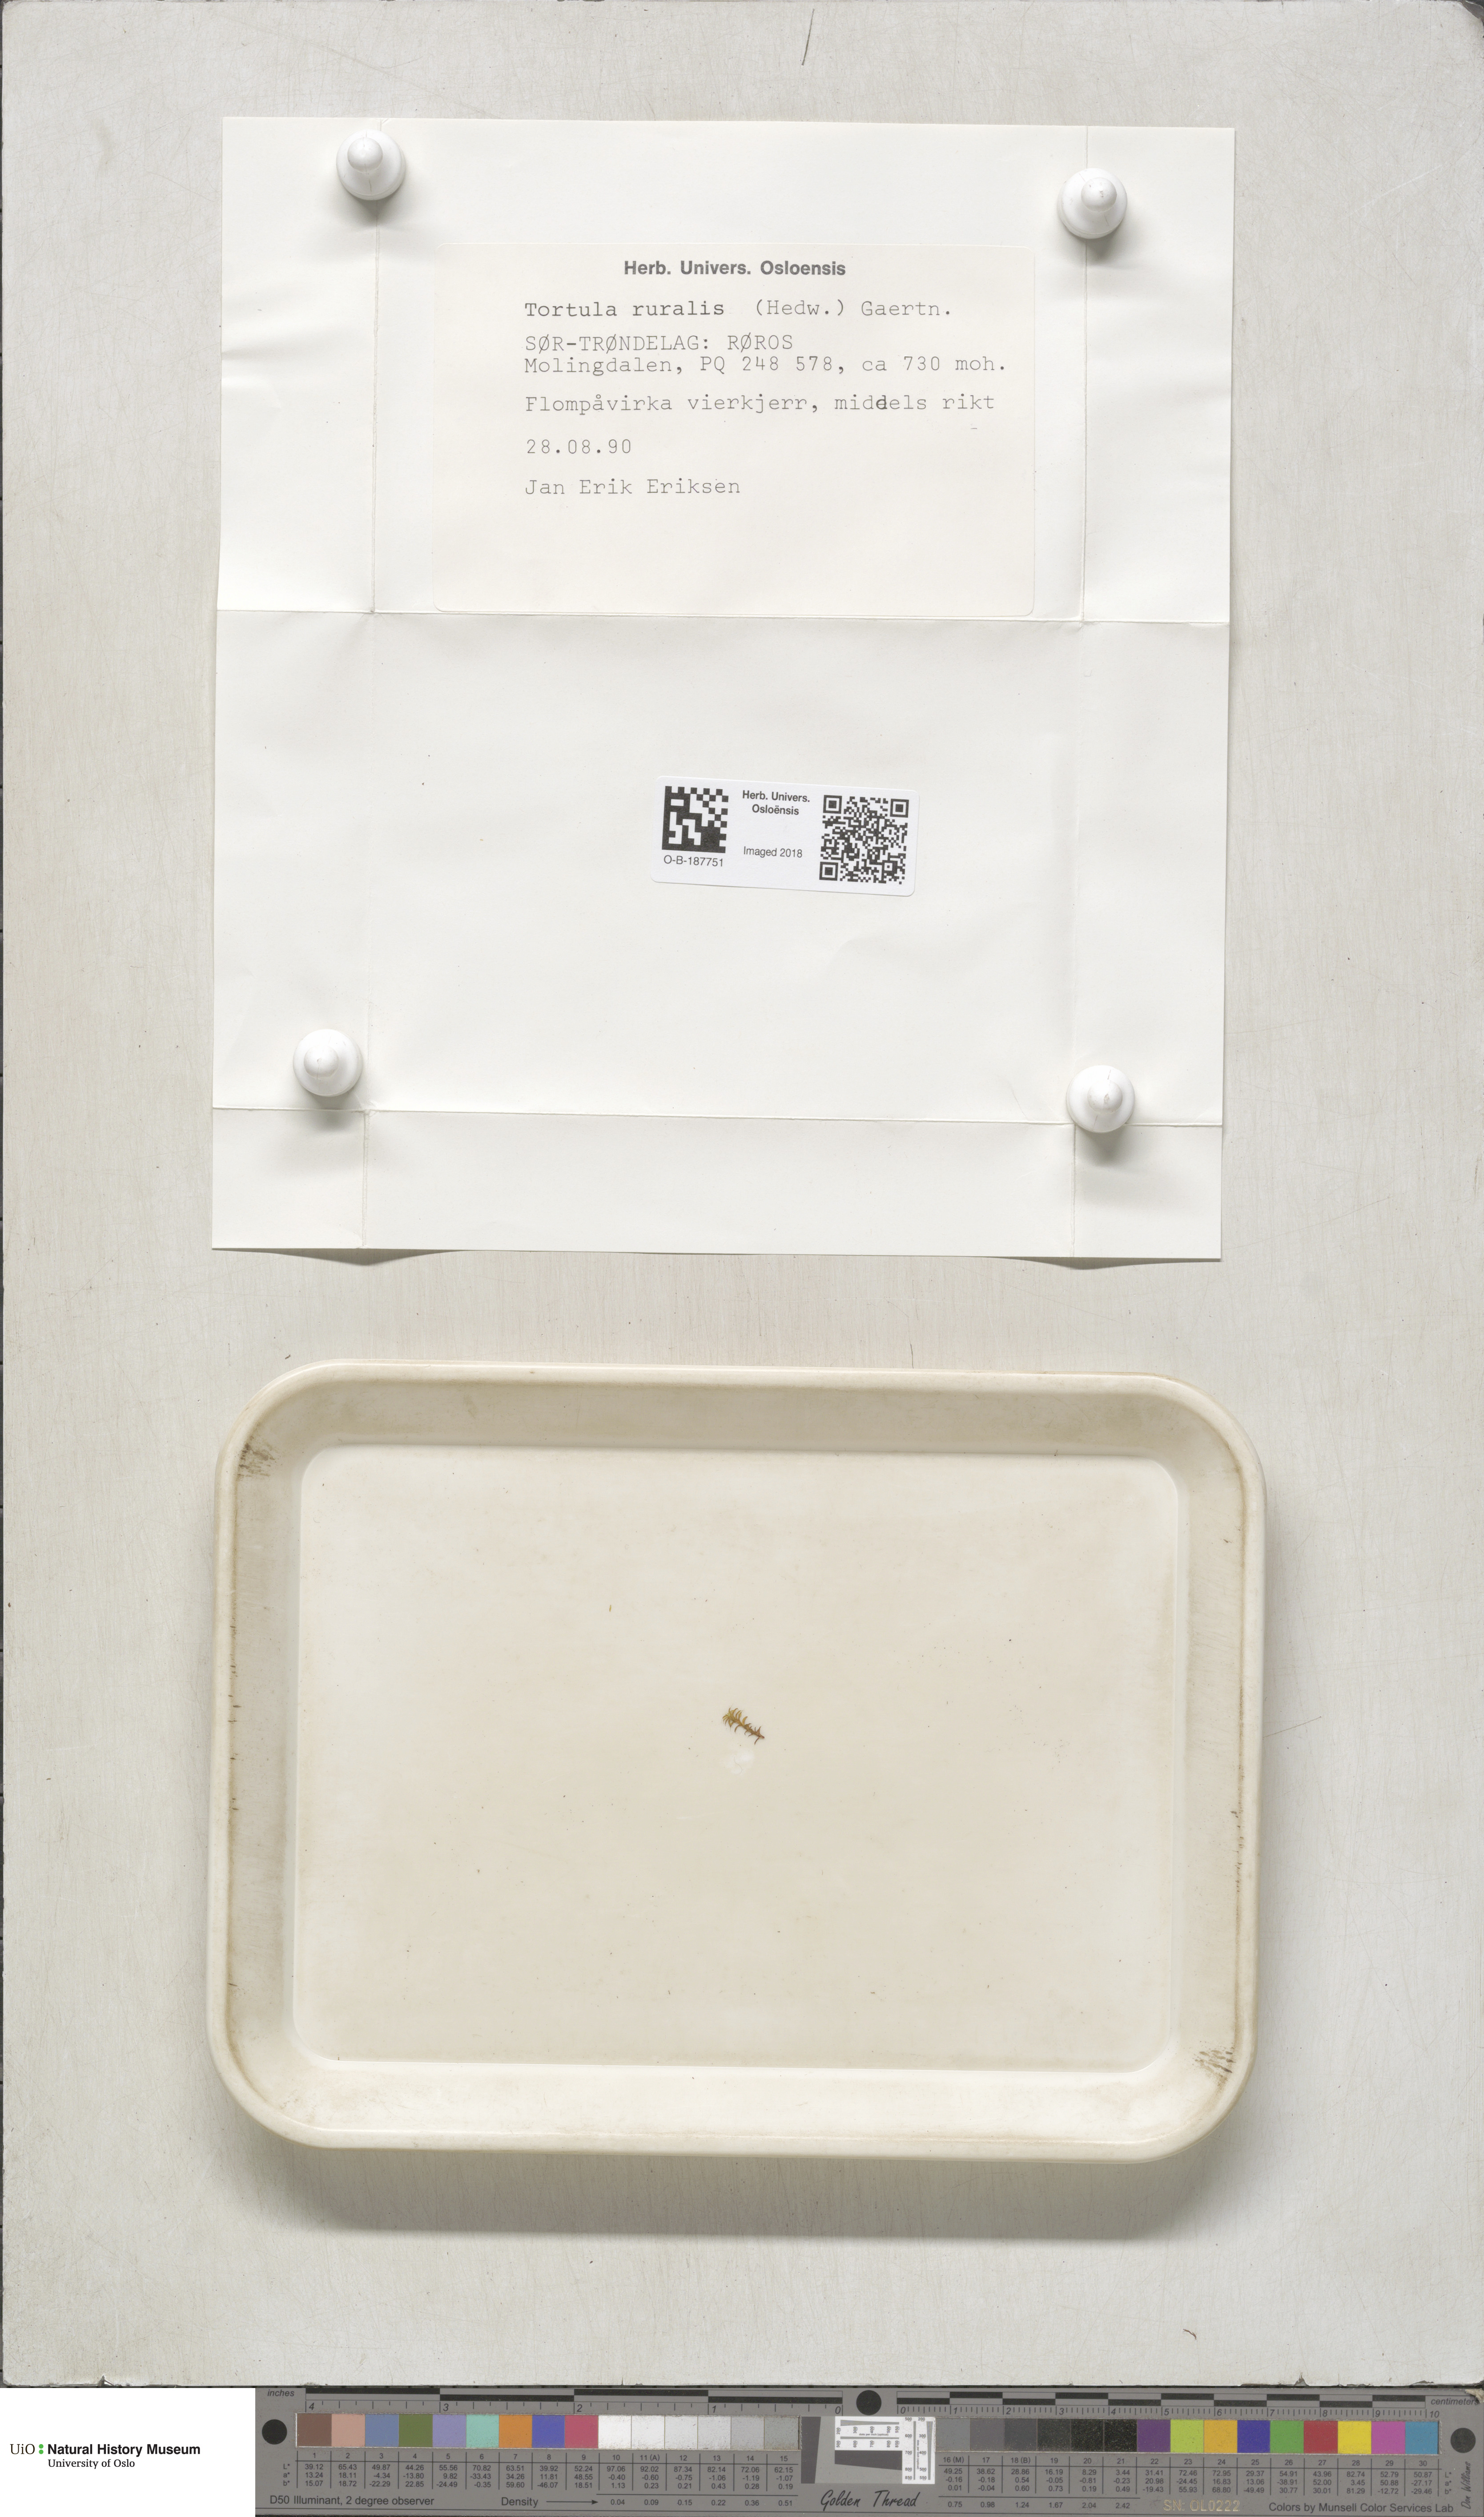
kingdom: Plantae
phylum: Bryophyta
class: Bryopsida
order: Pottiales
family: Pottiaceae
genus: Syntrichia
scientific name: Syntrichia ruralis
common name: Sidewalk screw moss
